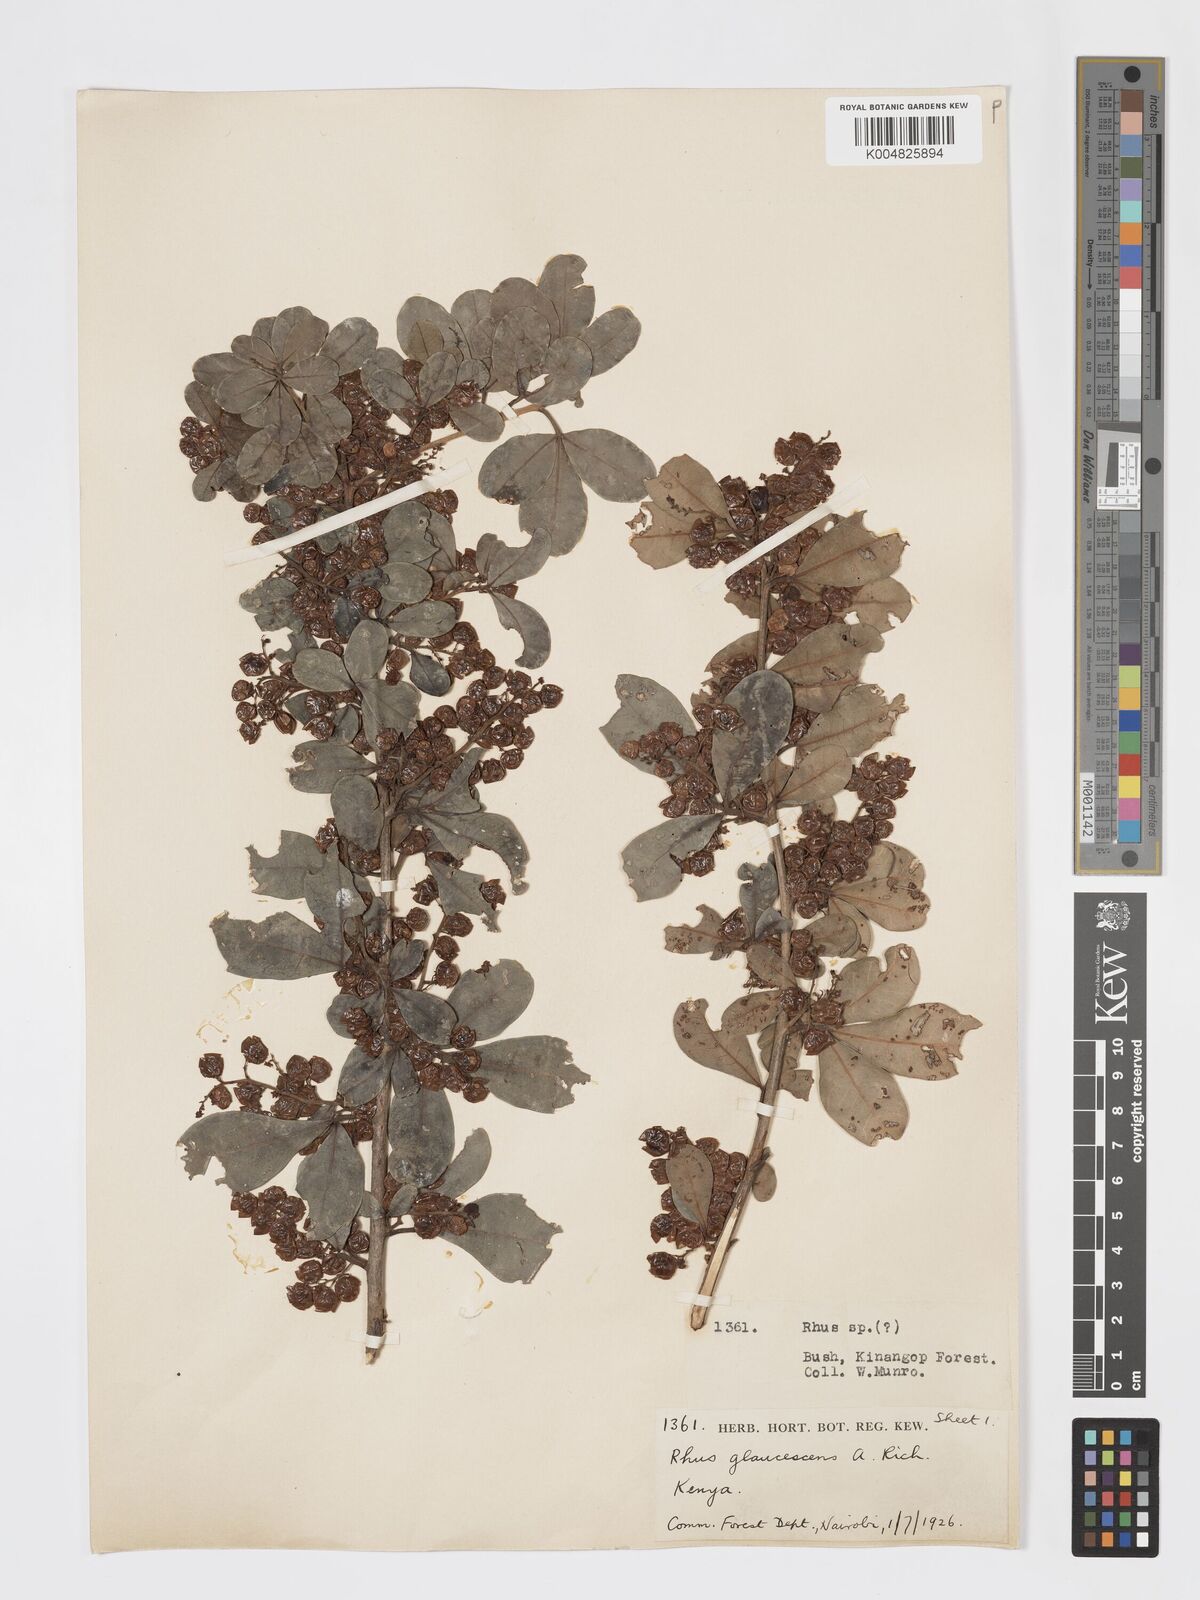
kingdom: Plantae
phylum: Tracheophyta
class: Magnoliopsida
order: Sapindales
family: Anacardiaceae
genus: Searsia
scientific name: Searsia natalensis
